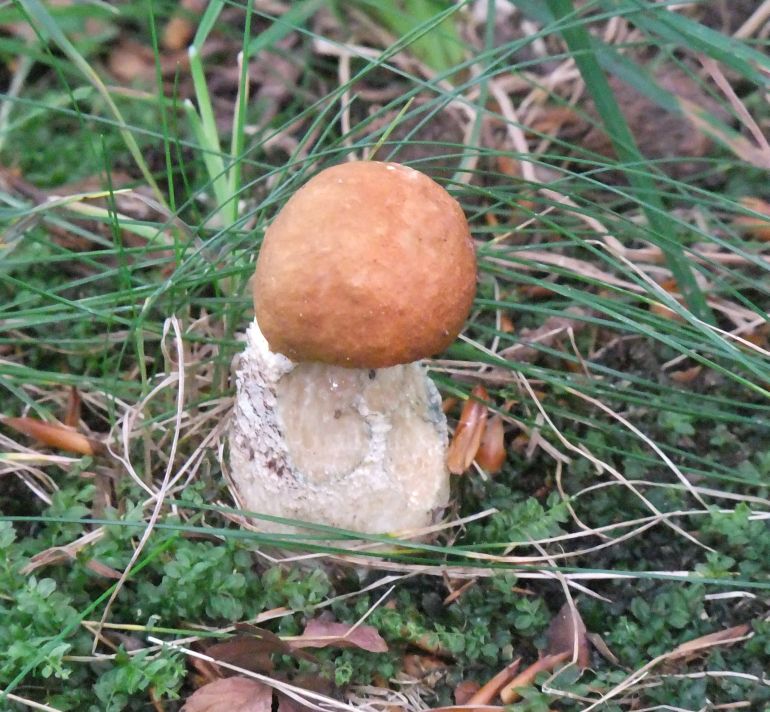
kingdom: Fungi
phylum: Basidiomycota
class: Agaricomycetes
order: Boletales
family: Boletaceae
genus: Leccinum
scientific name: Leccinum versipelle
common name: orange skælrørhat
